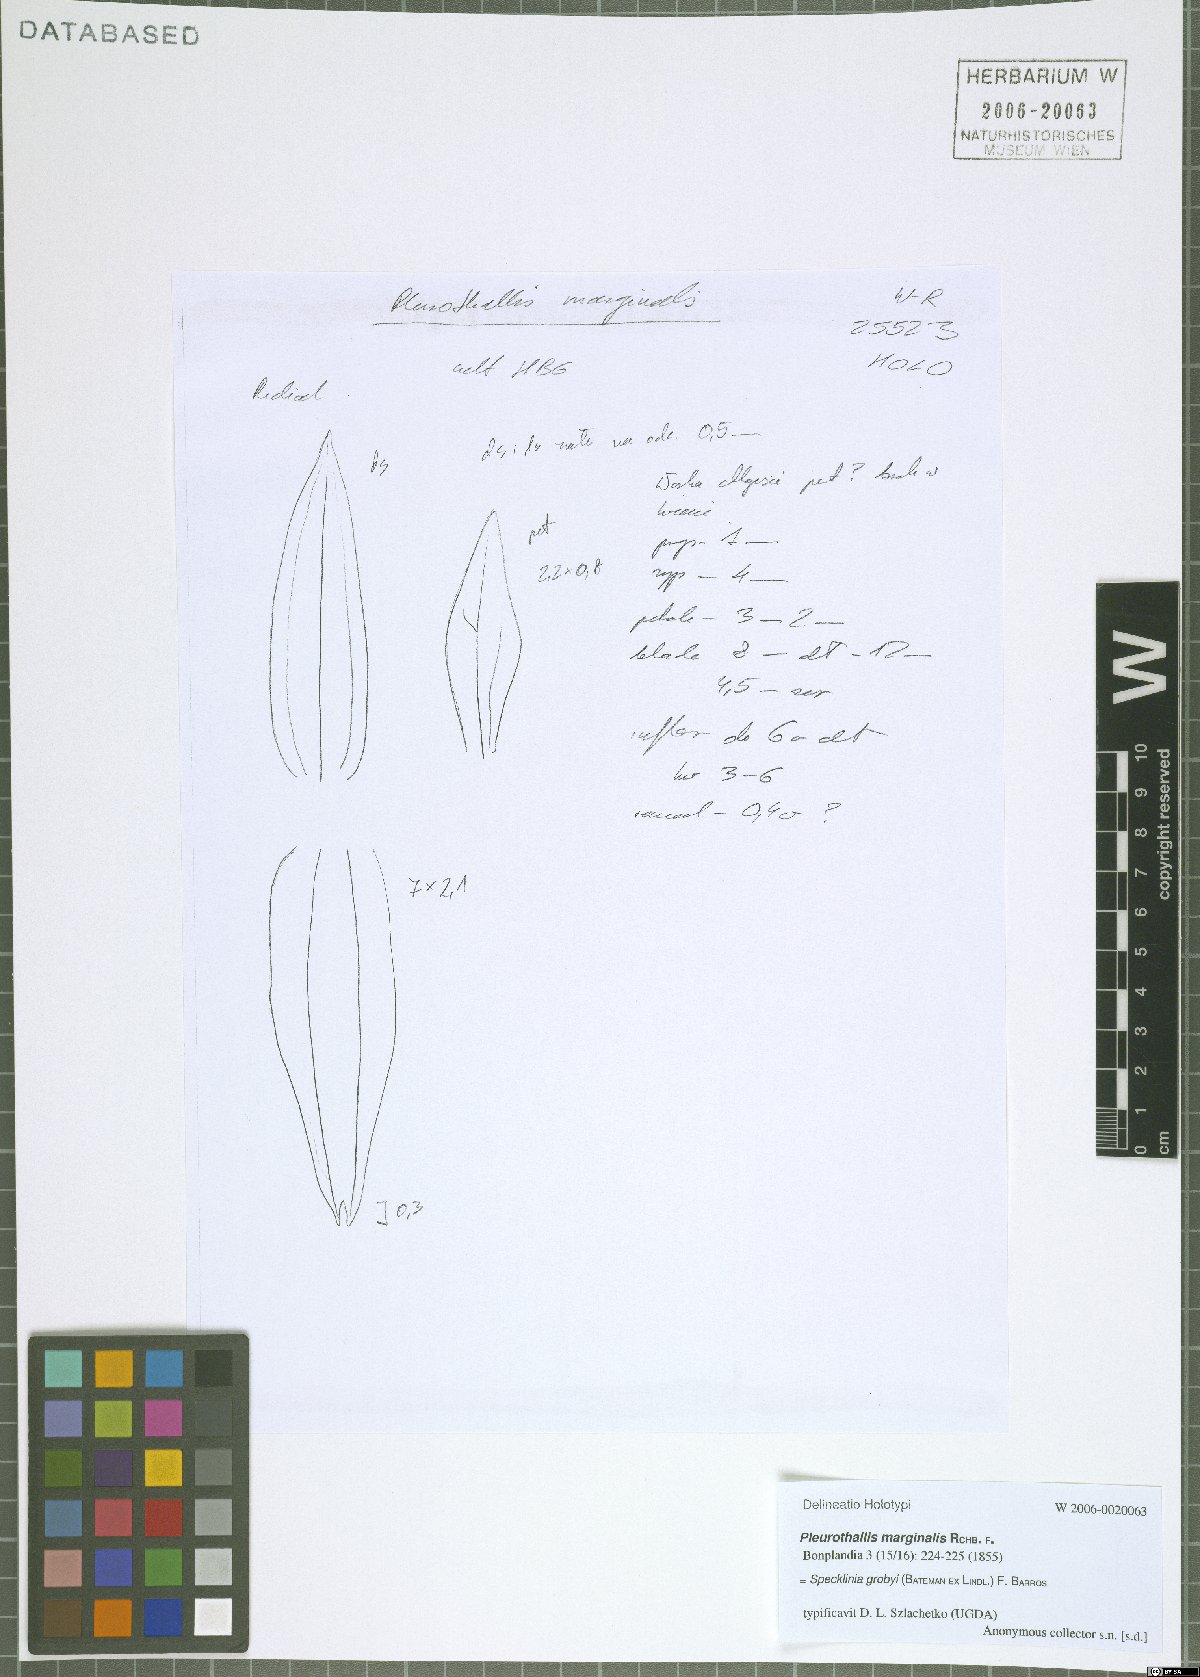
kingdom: Plantae
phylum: Tracheophyta
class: Liliopsida
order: Asparagales
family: Orchidaceae
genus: Specklinia
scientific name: Specklinia grobyi
